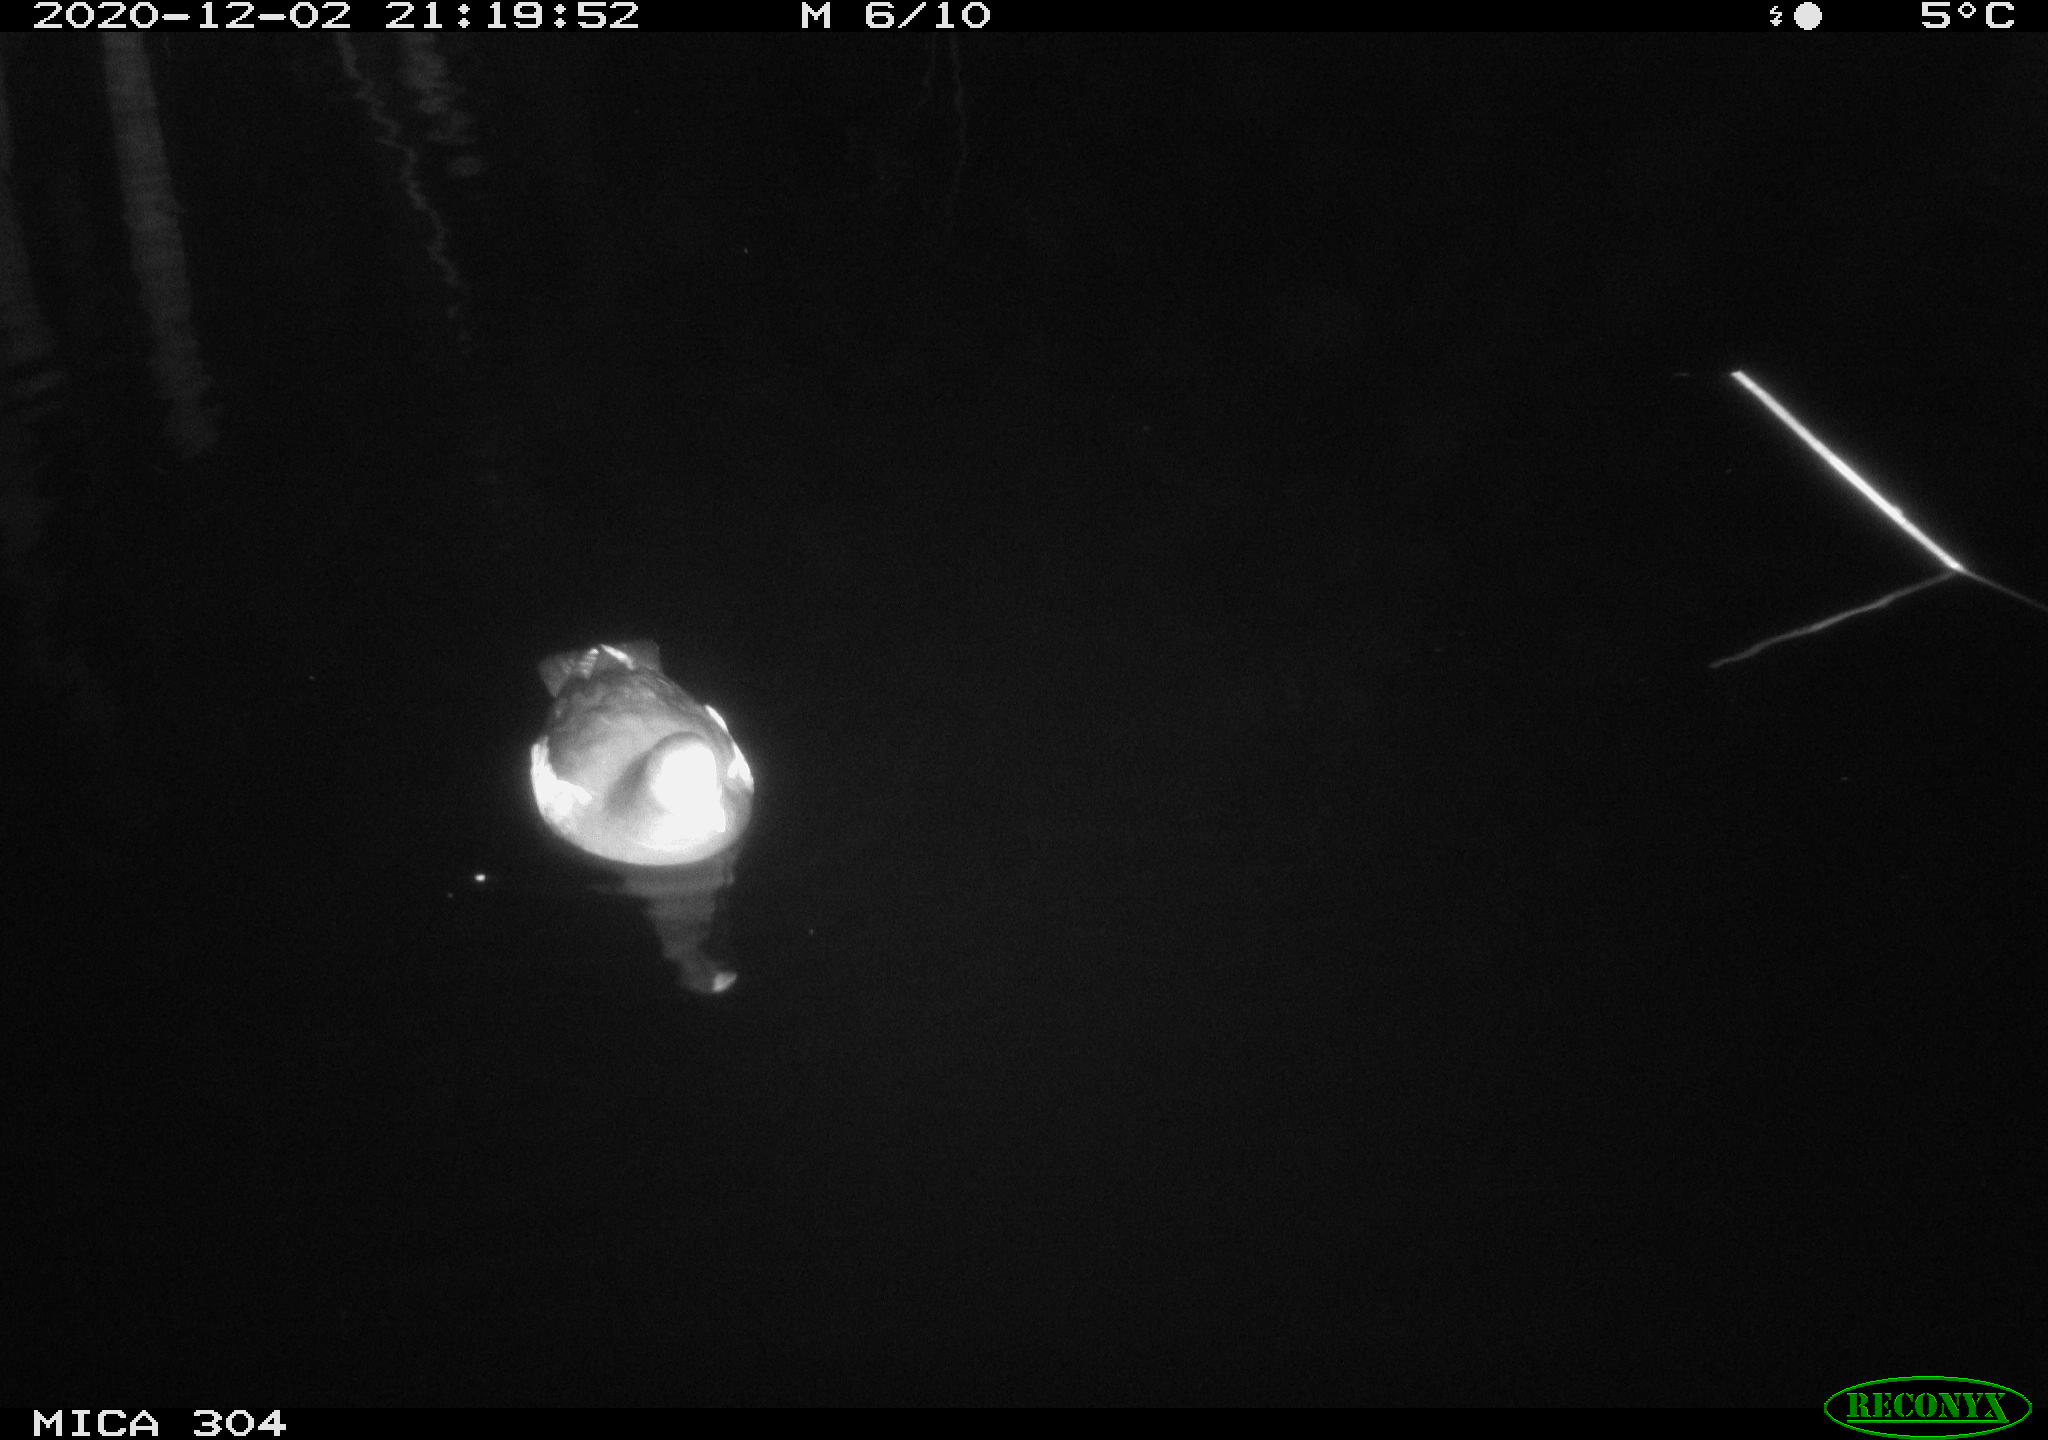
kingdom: Animalia
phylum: Chordata
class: Aves
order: Gruiformes
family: Rallidae
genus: Gallinula
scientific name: Gallinula chloropus
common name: Common moorhen
